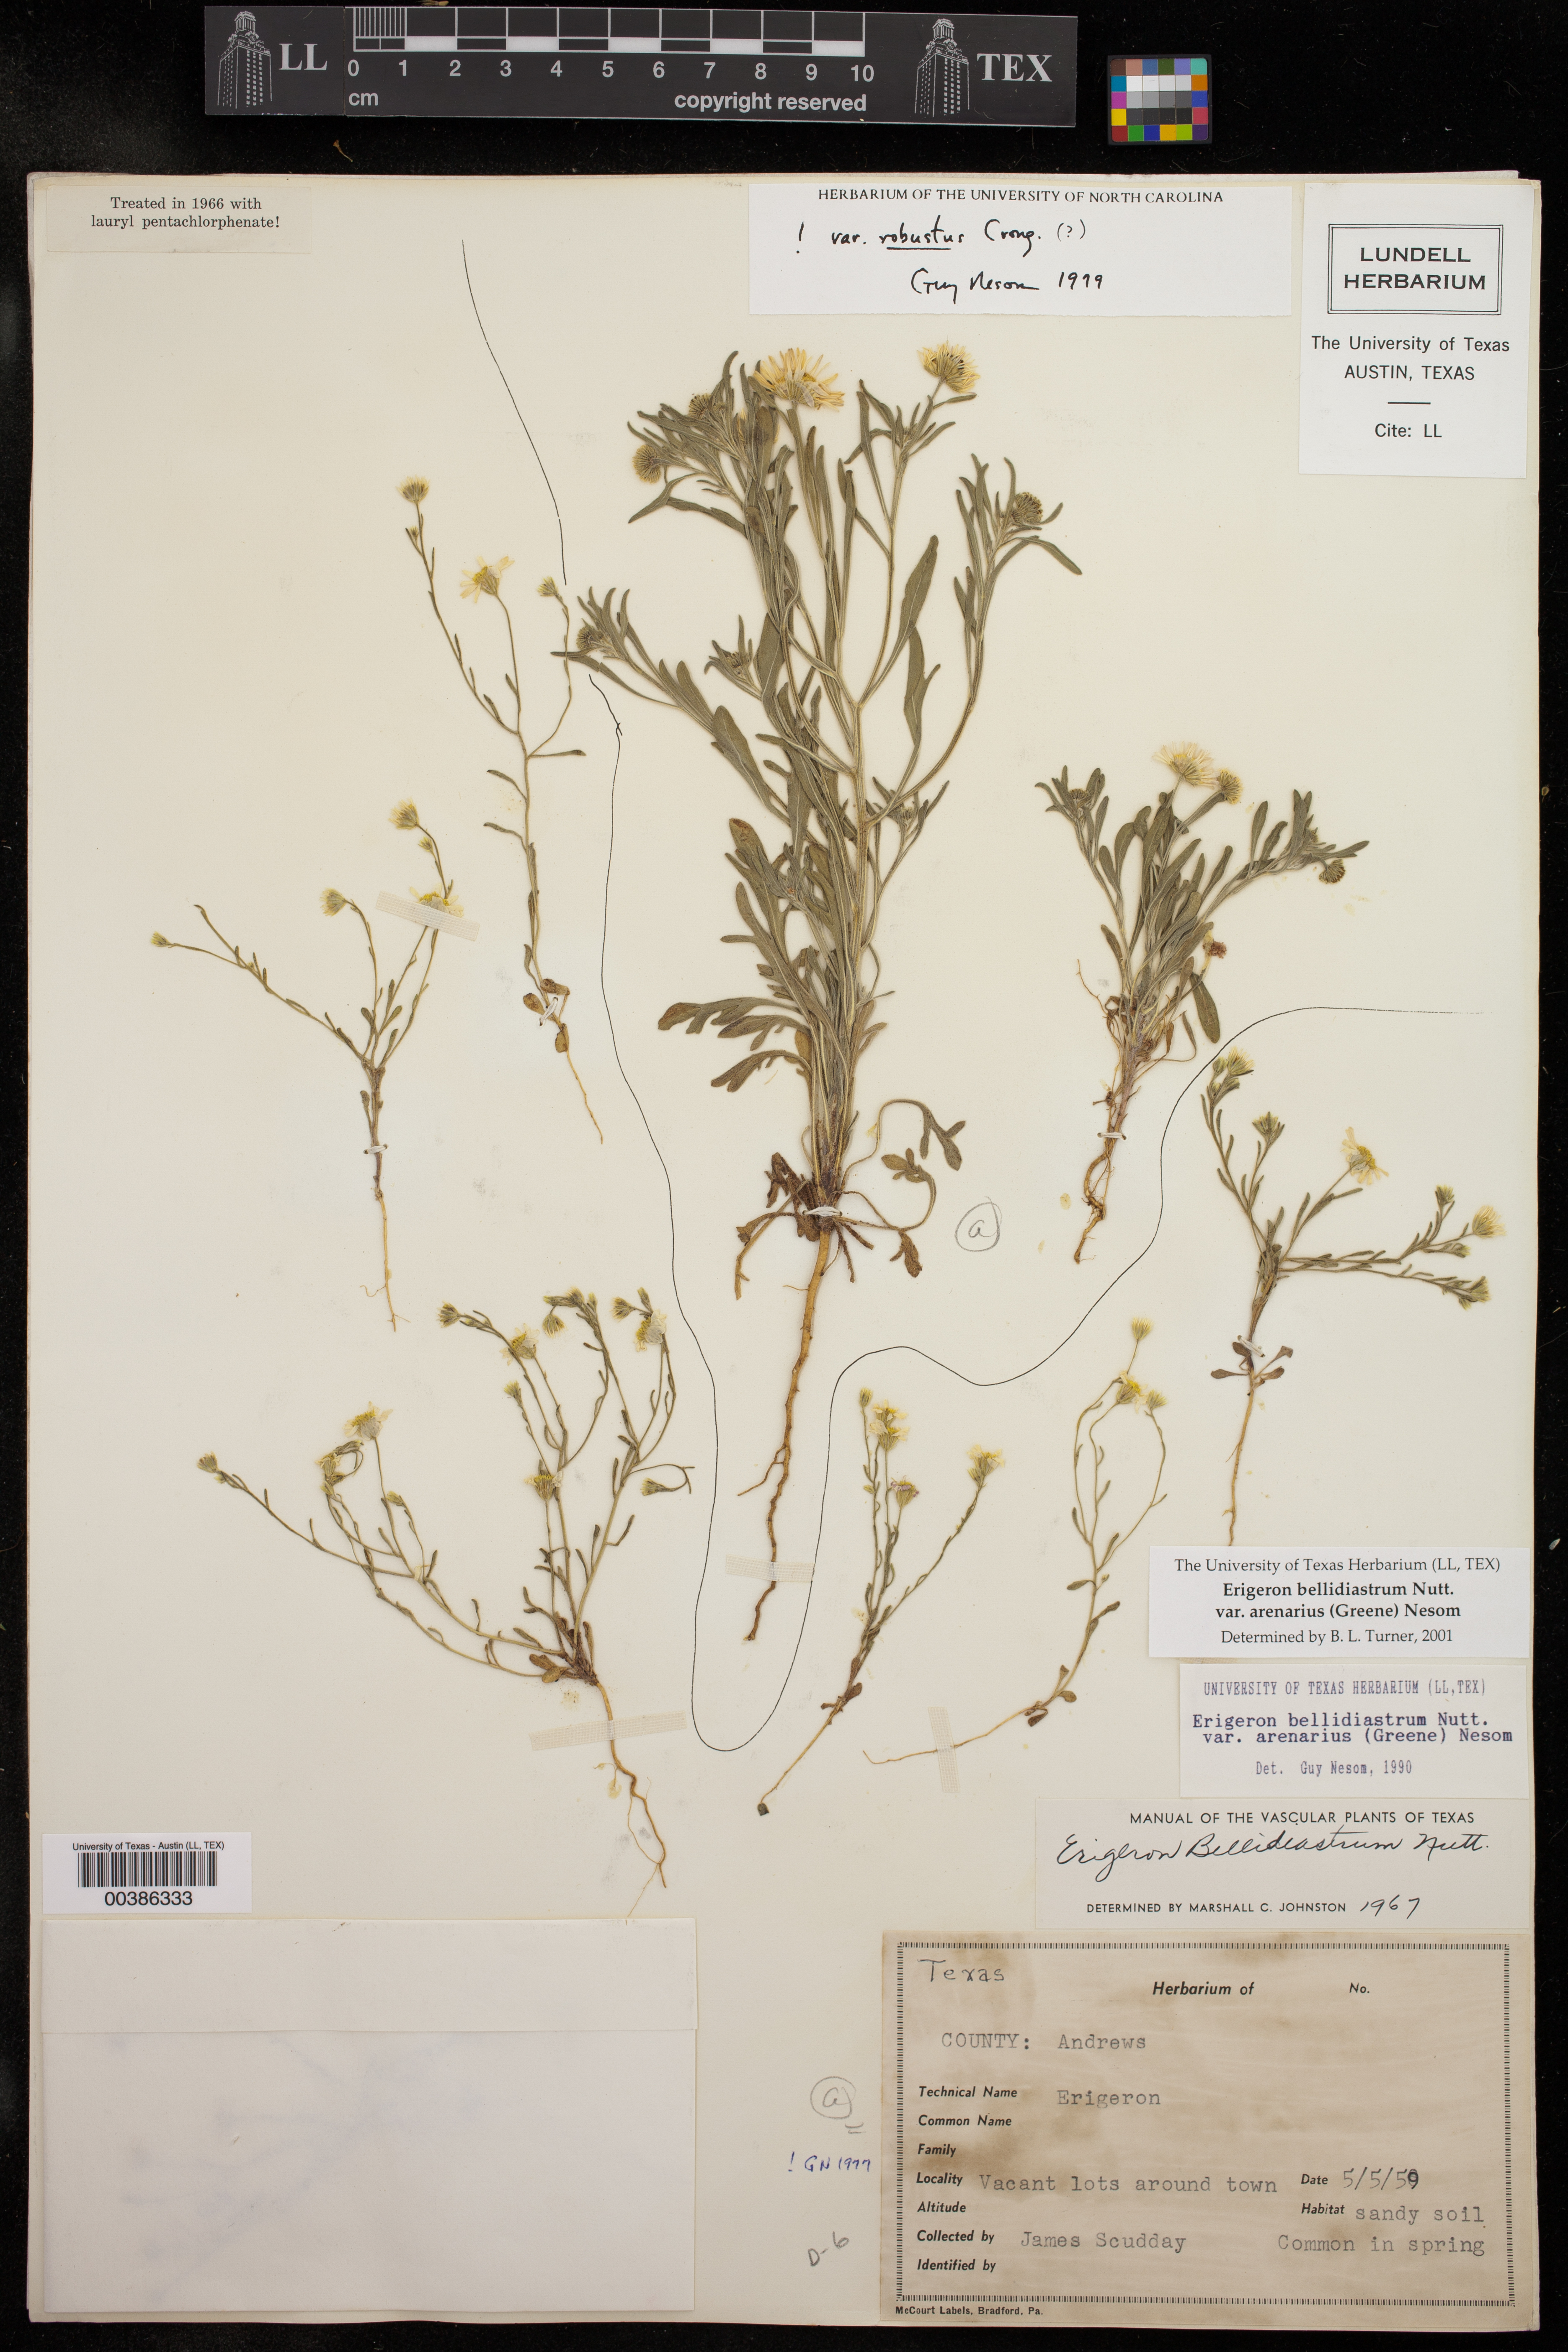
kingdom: Plantae
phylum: Tracheophyta
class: Magnoliopsida
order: Asterales
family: Asteraceae
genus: Erigeron
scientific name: Erigeron bellidiastrum
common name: Sand fleabane
